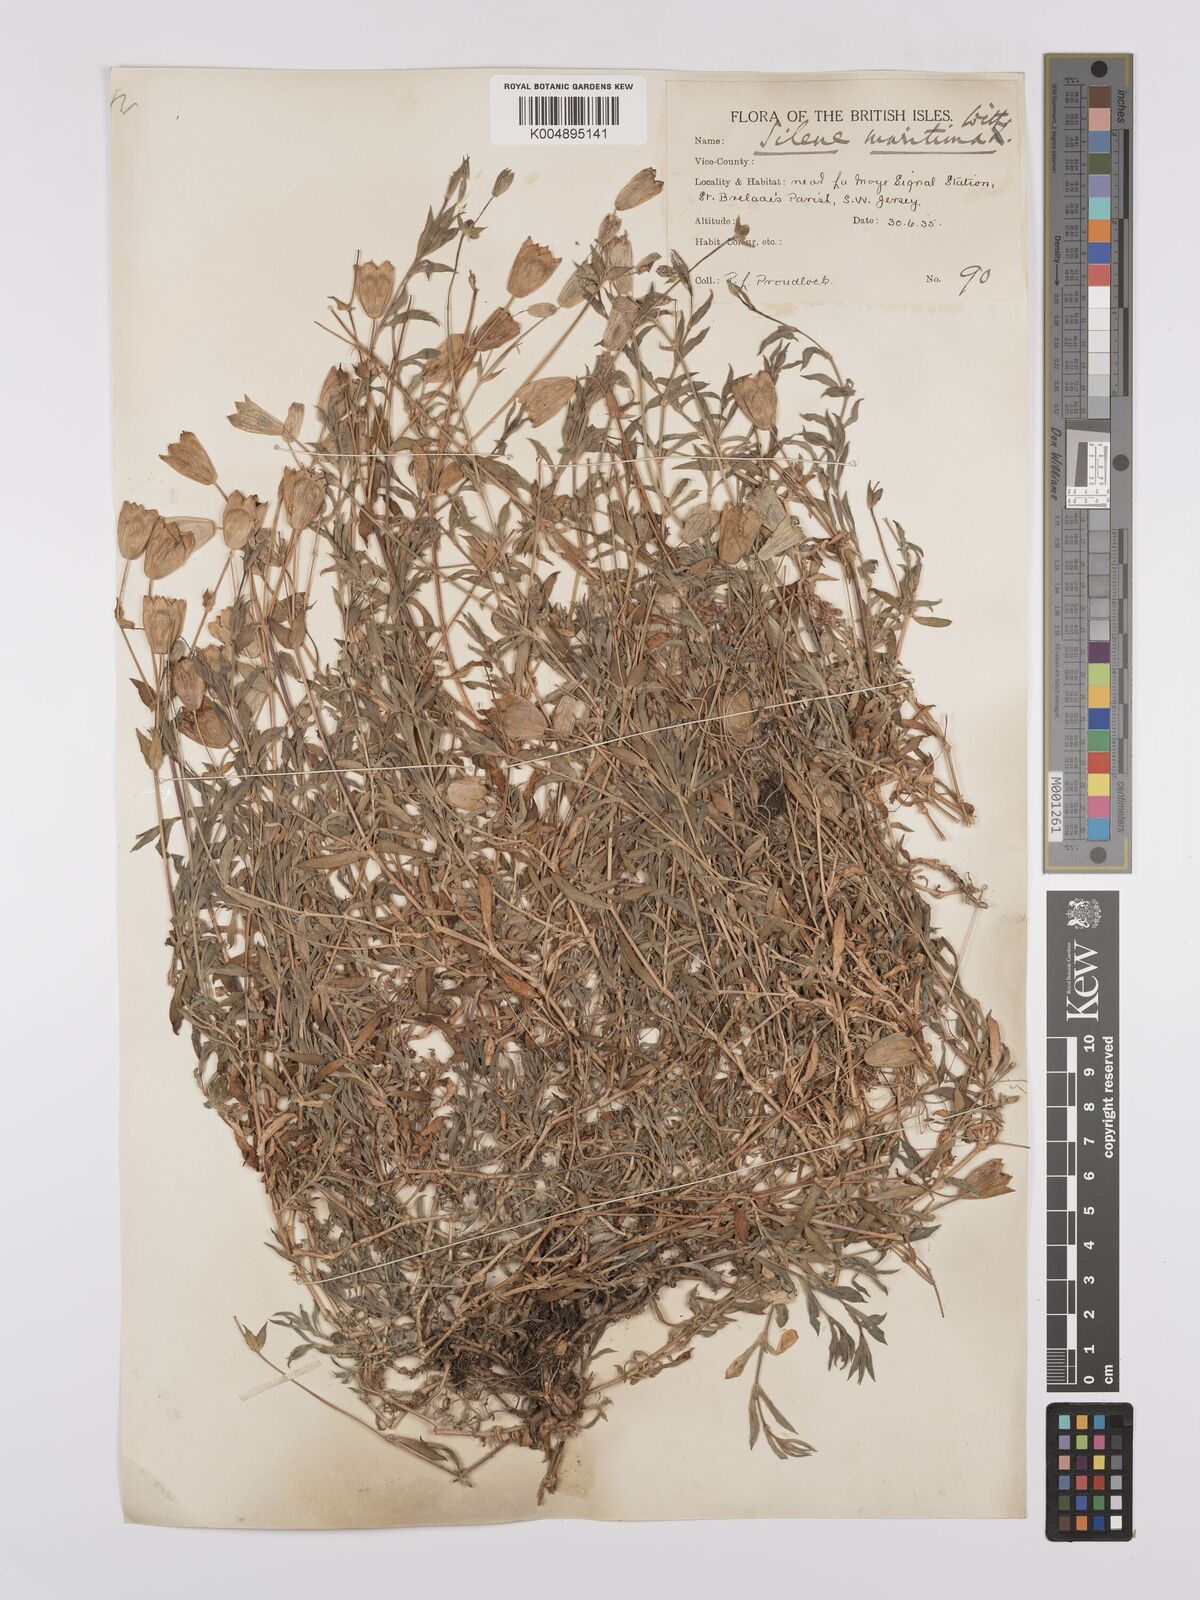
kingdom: Plantae
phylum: Tracheophyta
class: Magnoliopsida
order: Caryophyllales
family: Caryophyllaceae
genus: Silene
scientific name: Silene uniflora
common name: Sea campion
